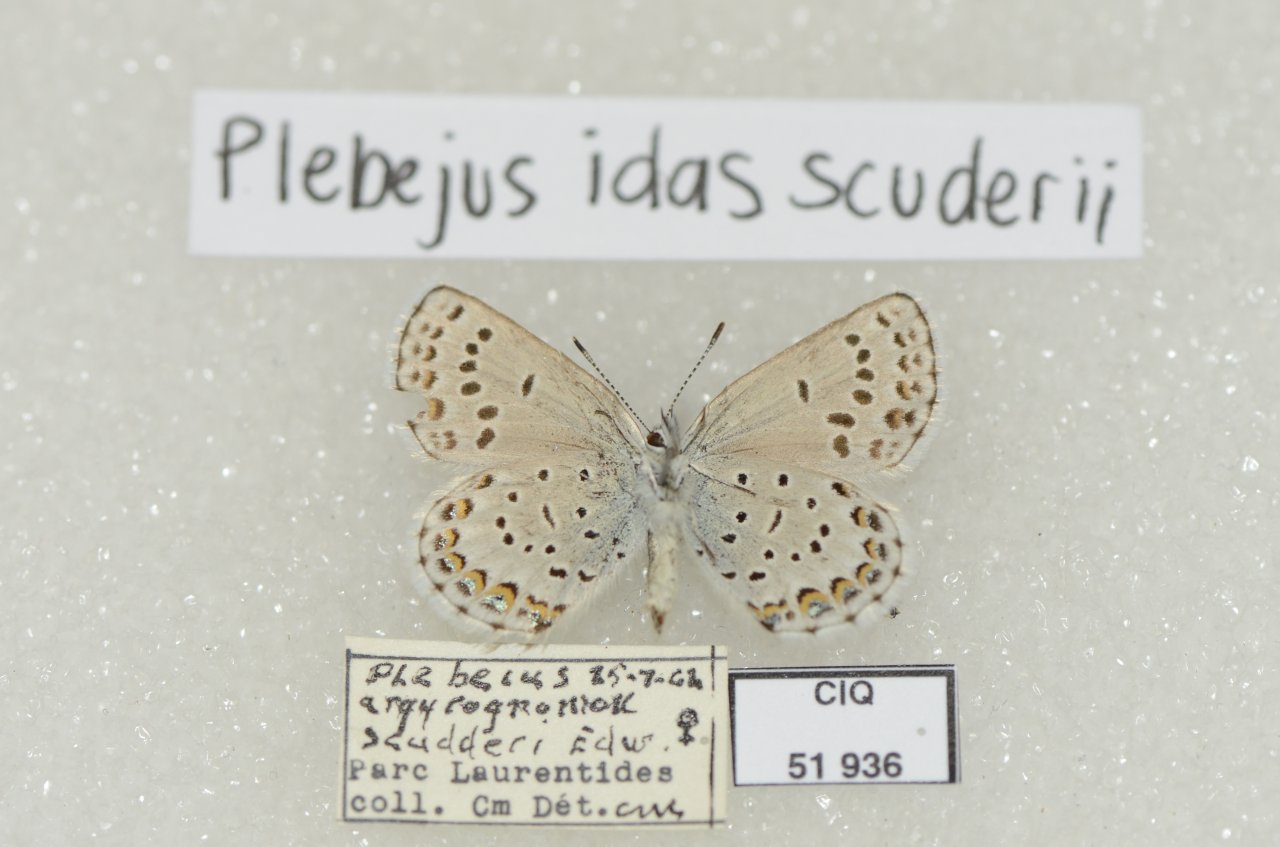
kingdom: Animalia
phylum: Arthropoda
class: Insecta
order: Lepidoptera
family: Lycaenidae
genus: Lycaeides
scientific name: Lycaeides idas
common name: Northern Blue
